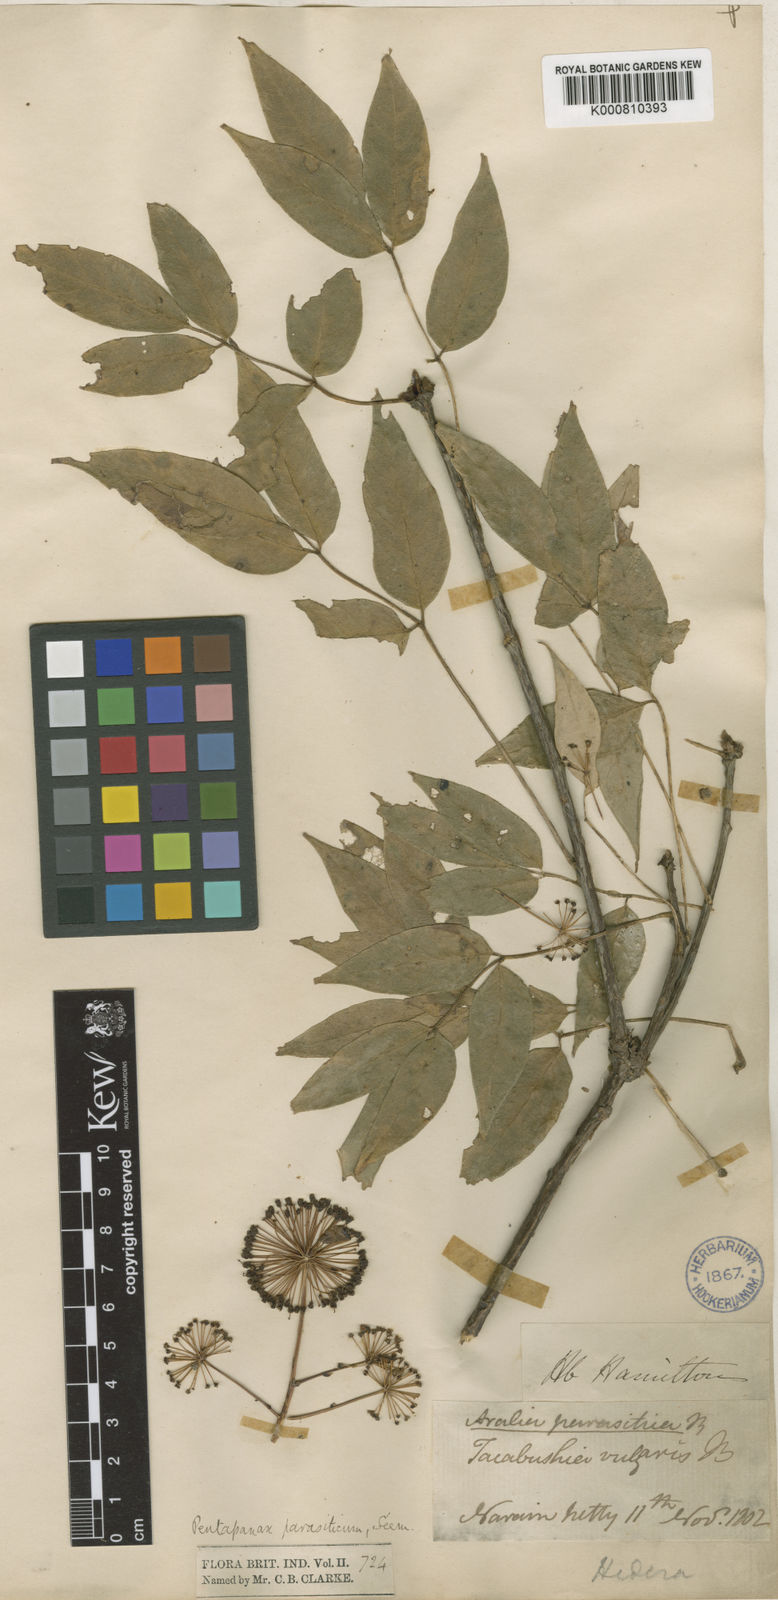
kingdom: Plantae
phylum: Tracheophyta
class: Magnoliopsida
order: Apiales
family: Araliaceae
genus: Aralia
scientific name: Aralia parasitica
